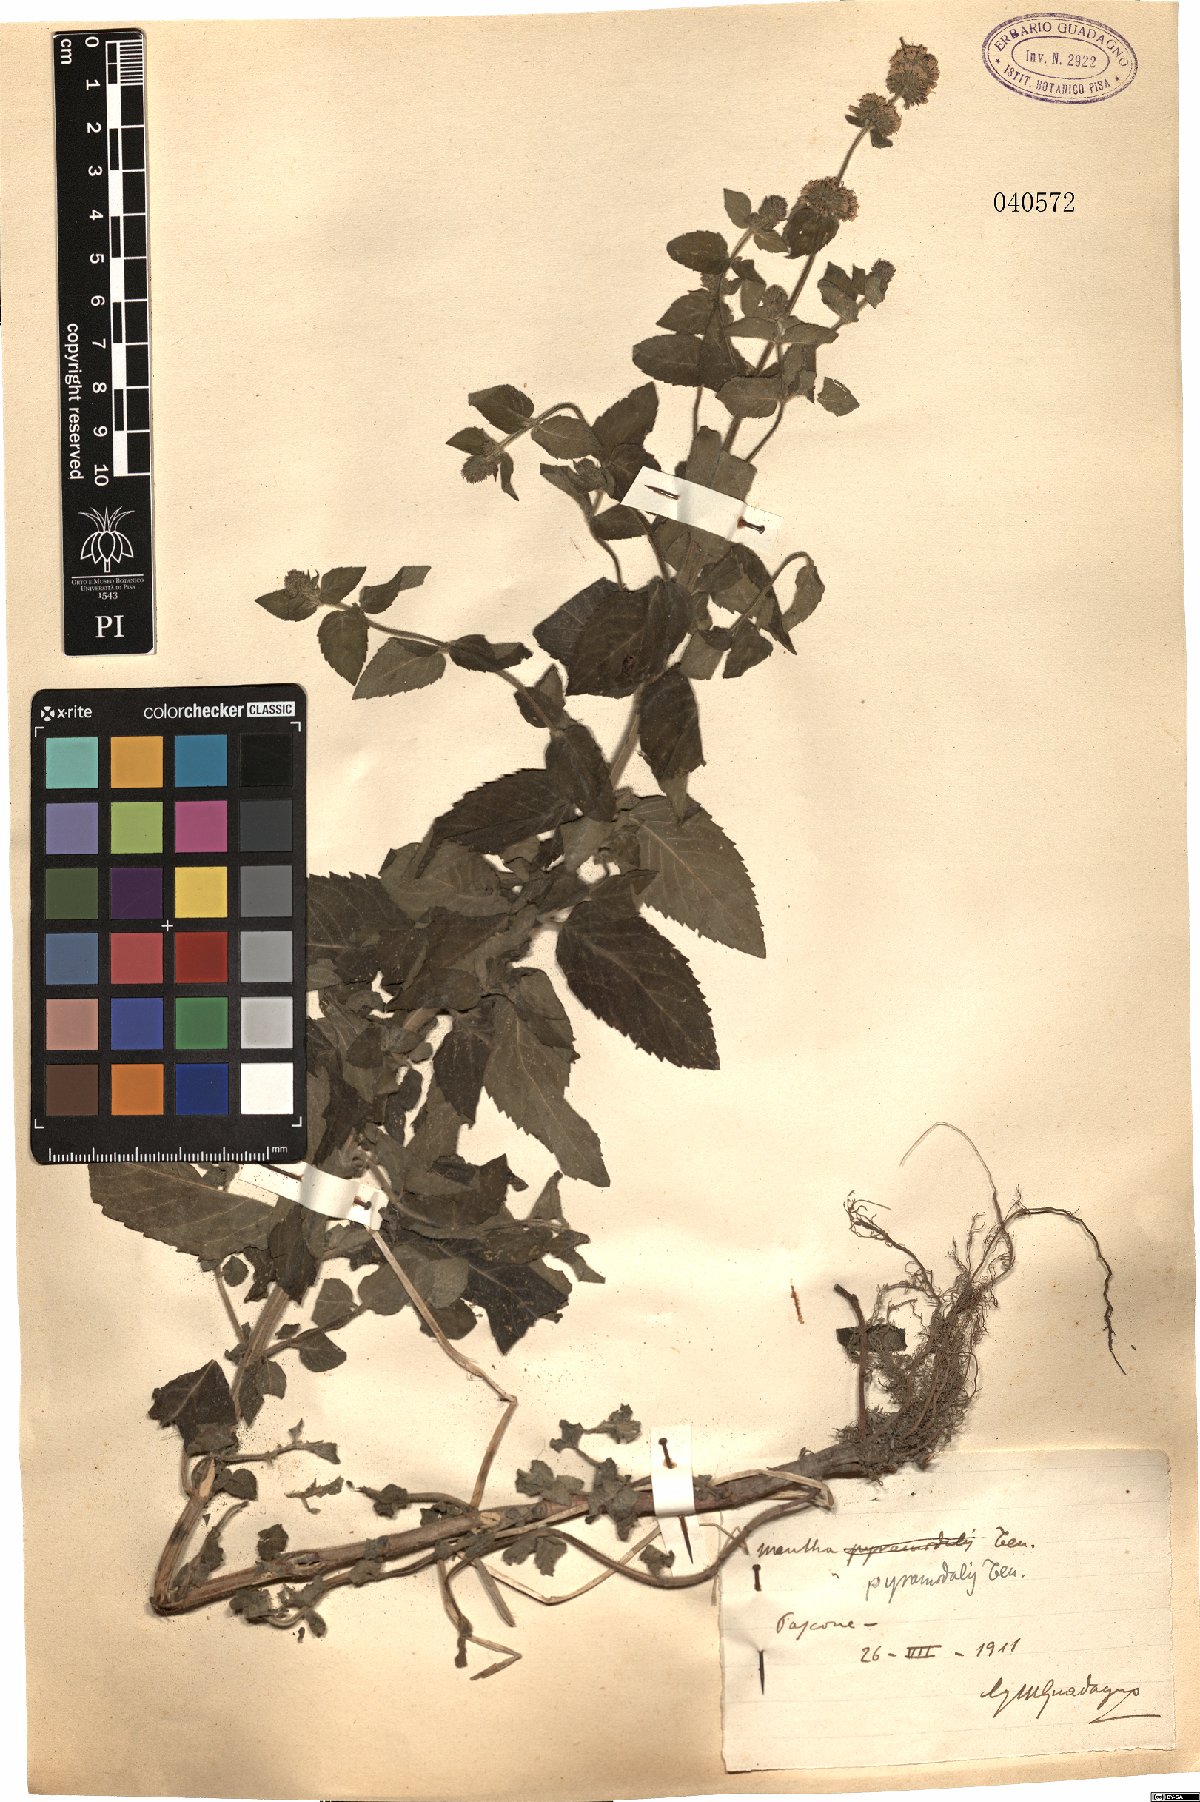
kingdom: Plantae
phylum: Tracheophyta
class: Magnoliopsida
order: Lamiales
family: Lamiaceae
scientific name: Lamiaceae
